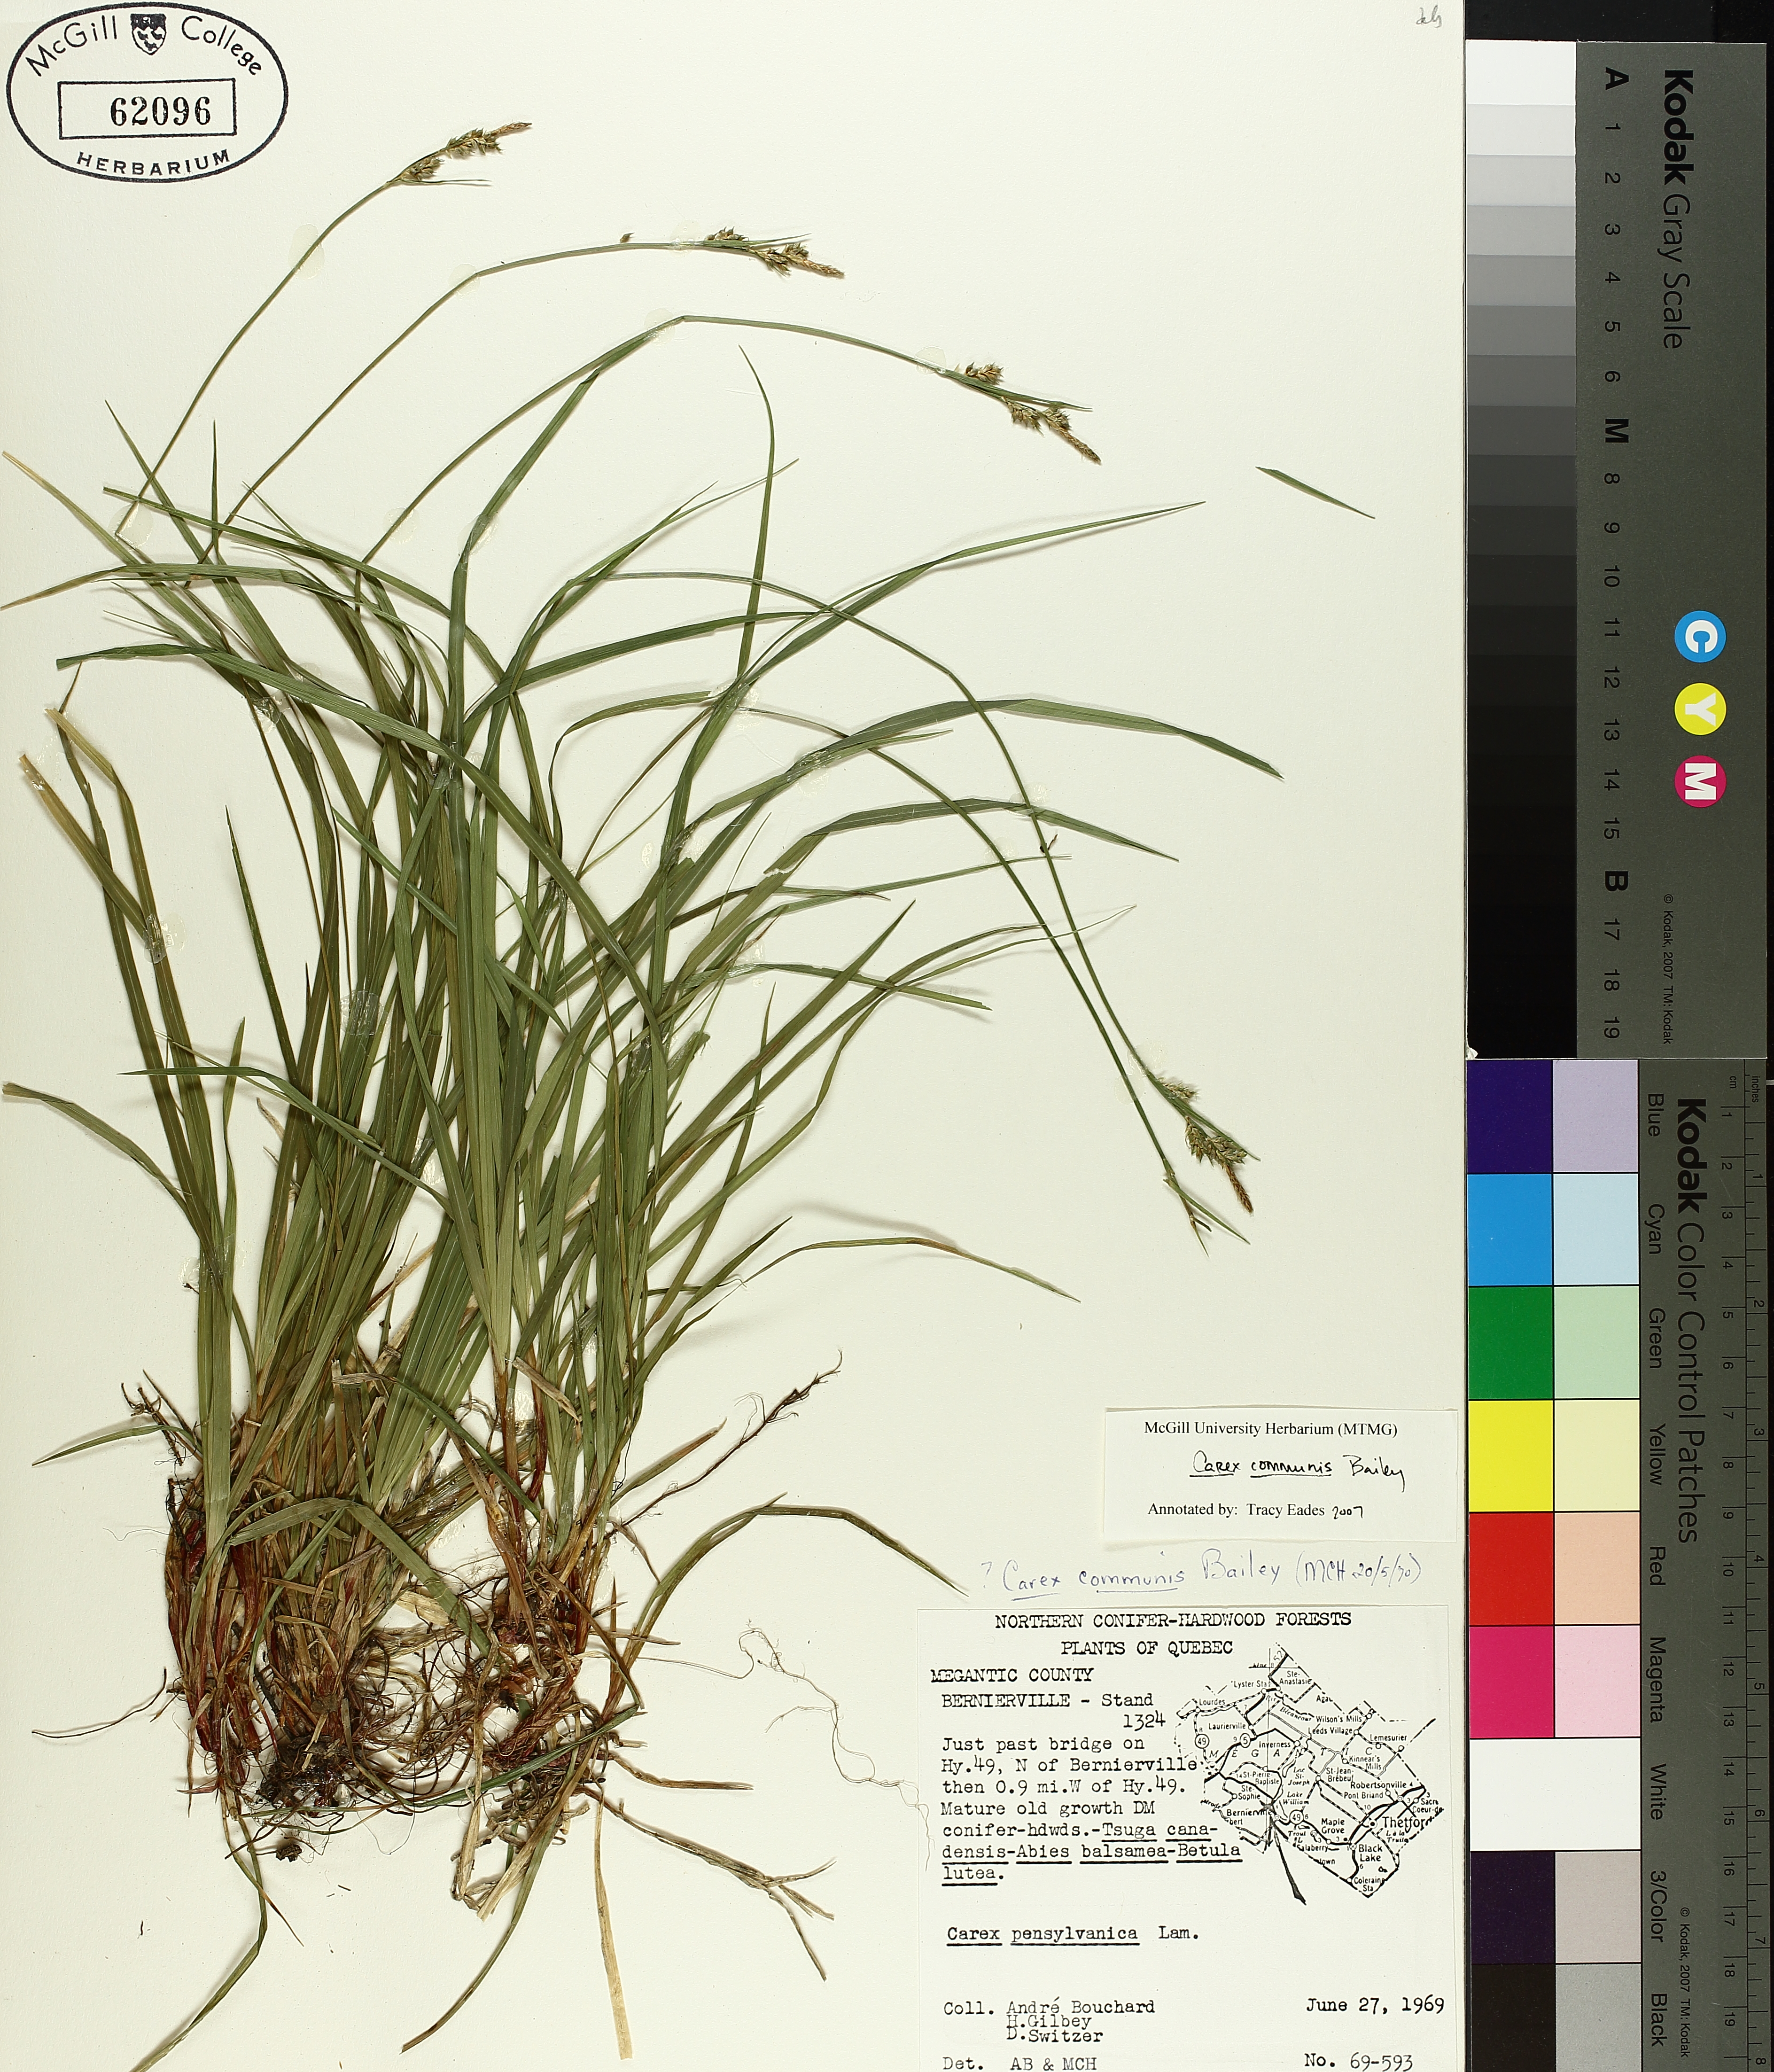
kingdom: Plantae
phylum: Tracheophyta
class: Liliopsida
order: Poales
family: Cyperaceae
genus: Carex
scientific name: Carex communis
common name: Colonial oak sedge
